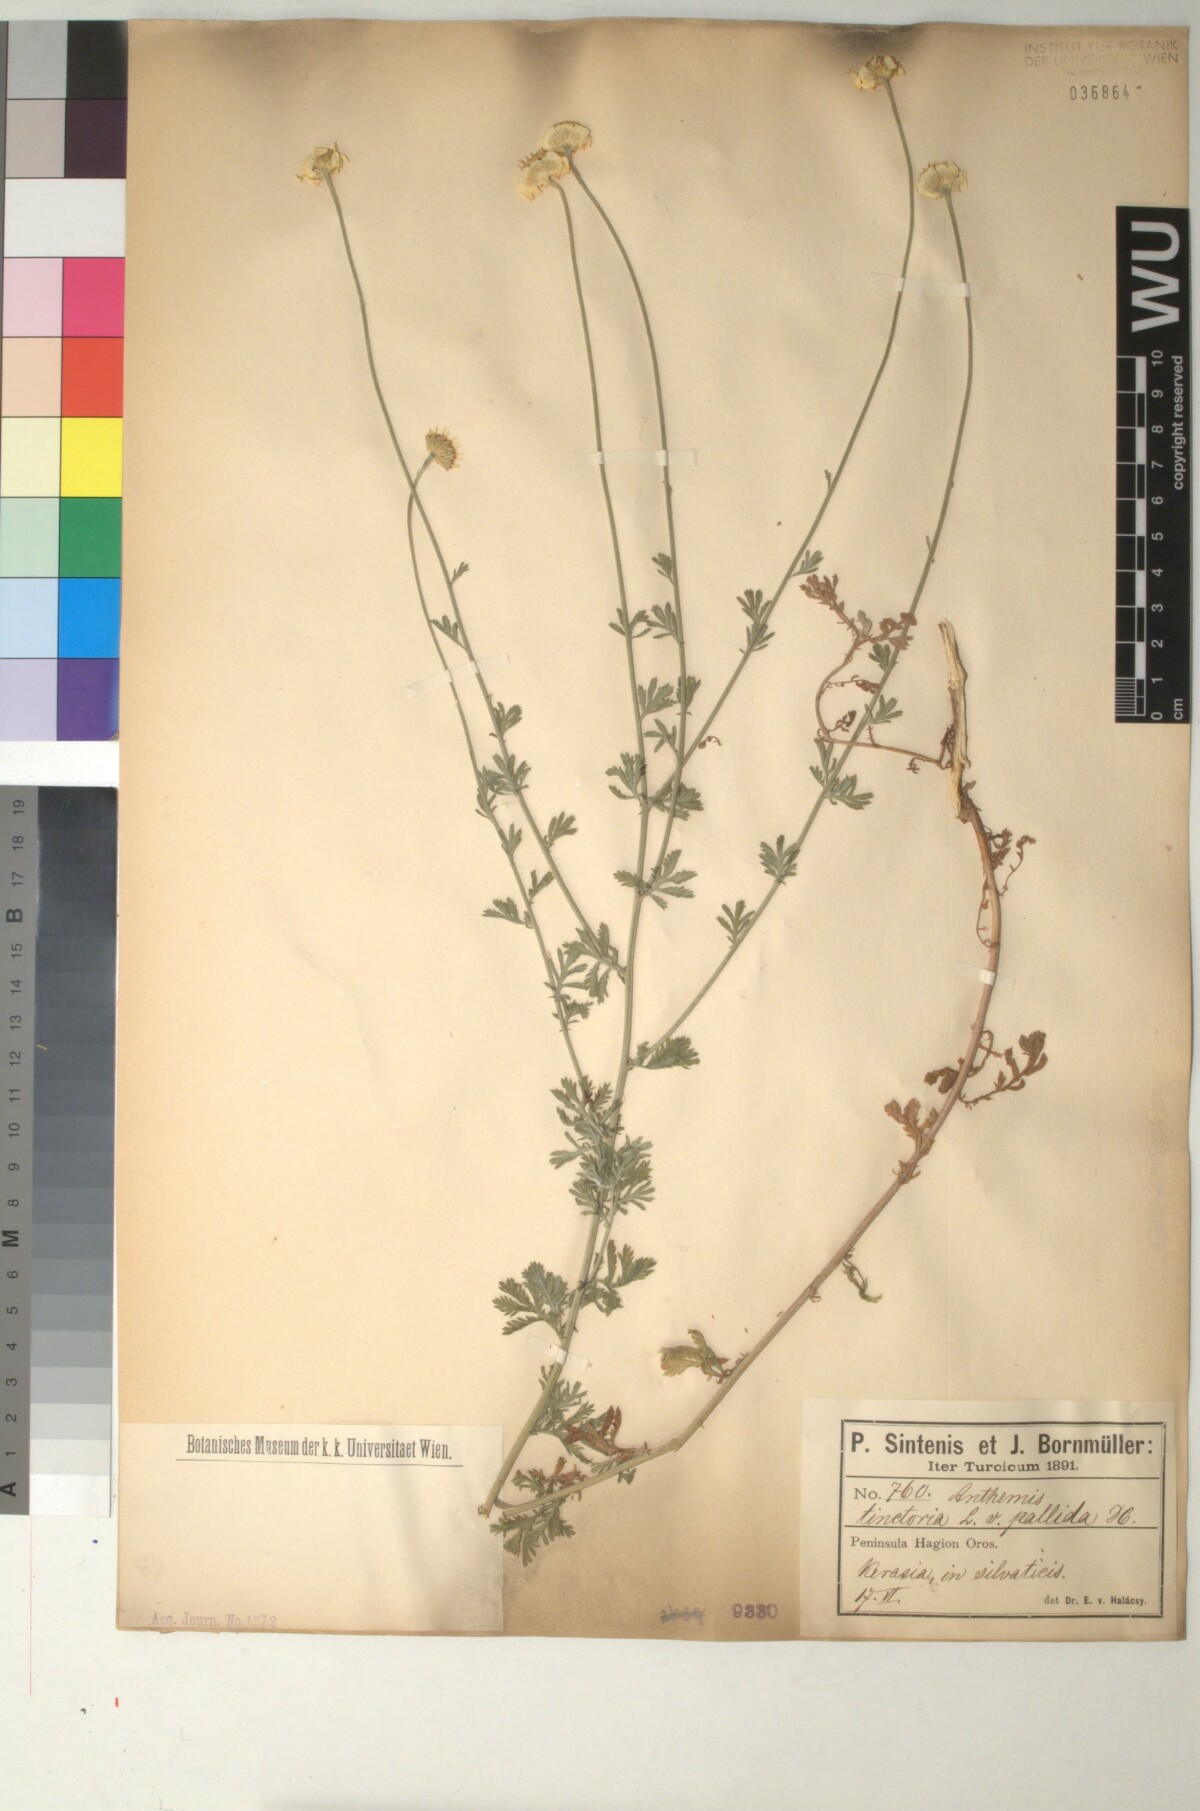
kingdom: Plantae
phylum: Tracheophyta
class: Magnoliopsida
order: Asterales
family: Asteraceae
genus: Cota
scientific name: Cota tinctoria
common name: Golden chamomile
